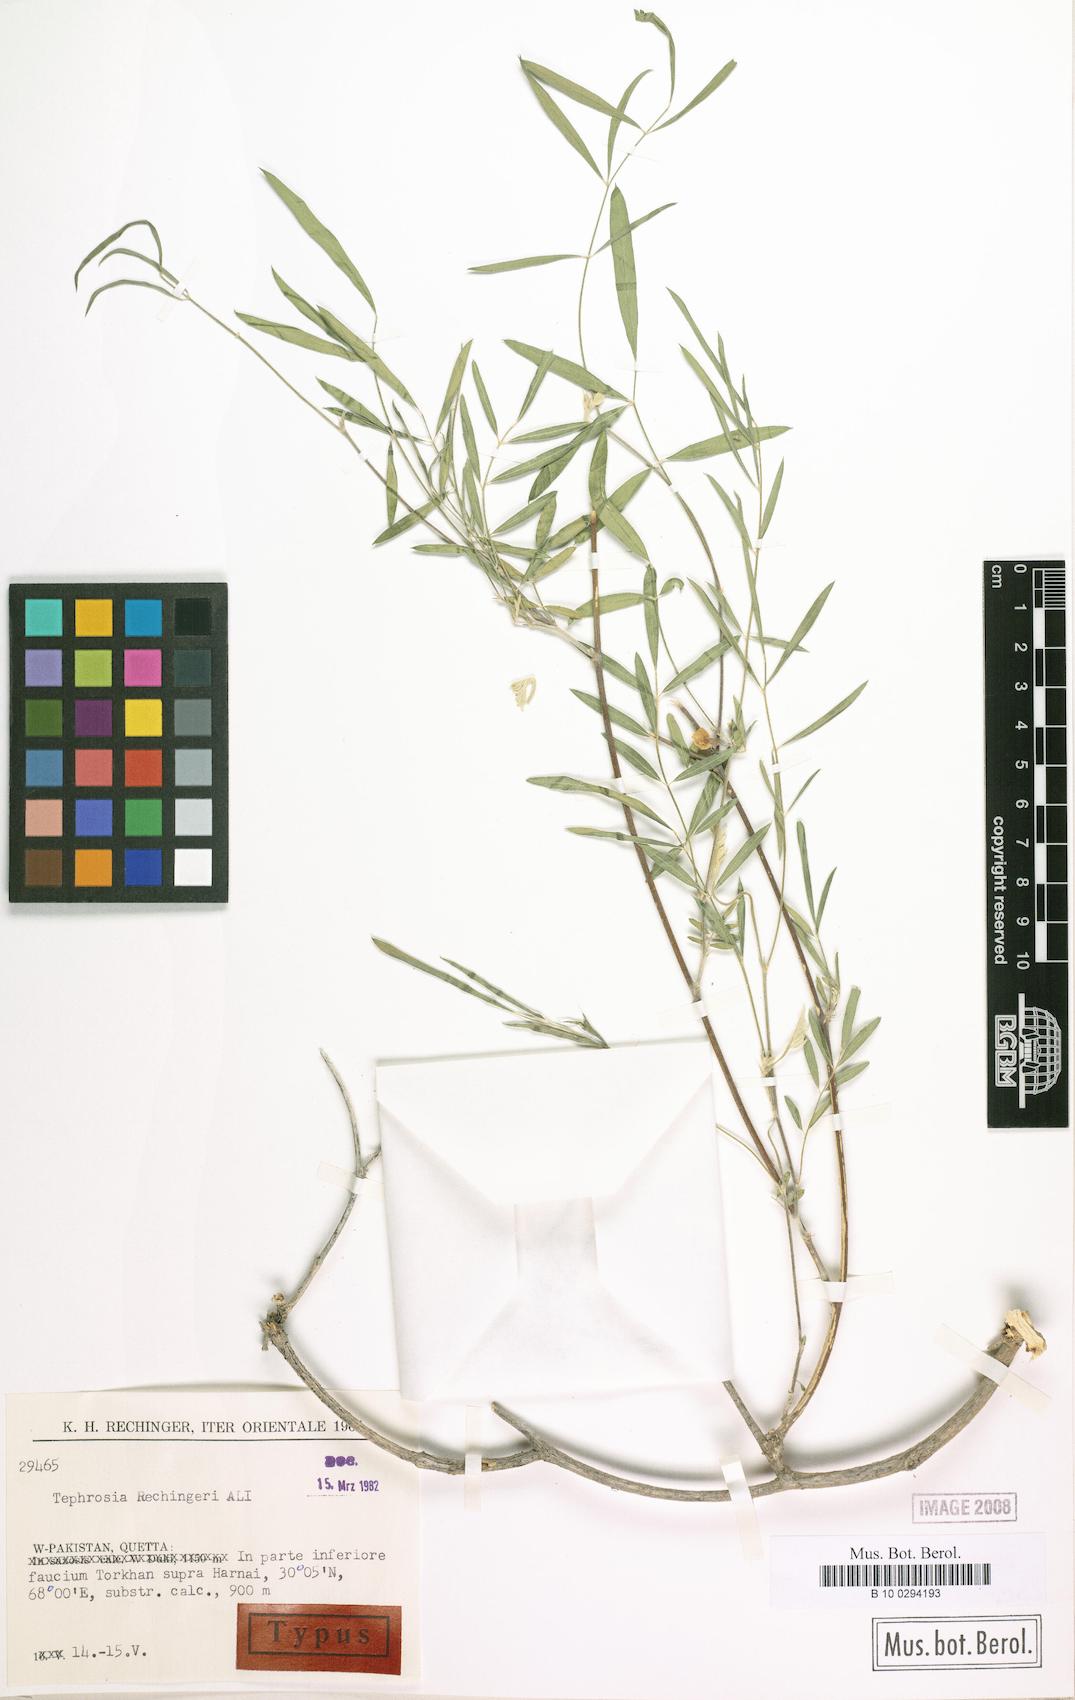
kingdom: Plantae
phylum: Tracheophyta
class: Magnoliopsida
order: Fabales
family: Fabaceae
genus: Tephrosia
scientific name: Tephrosia rechingeri
